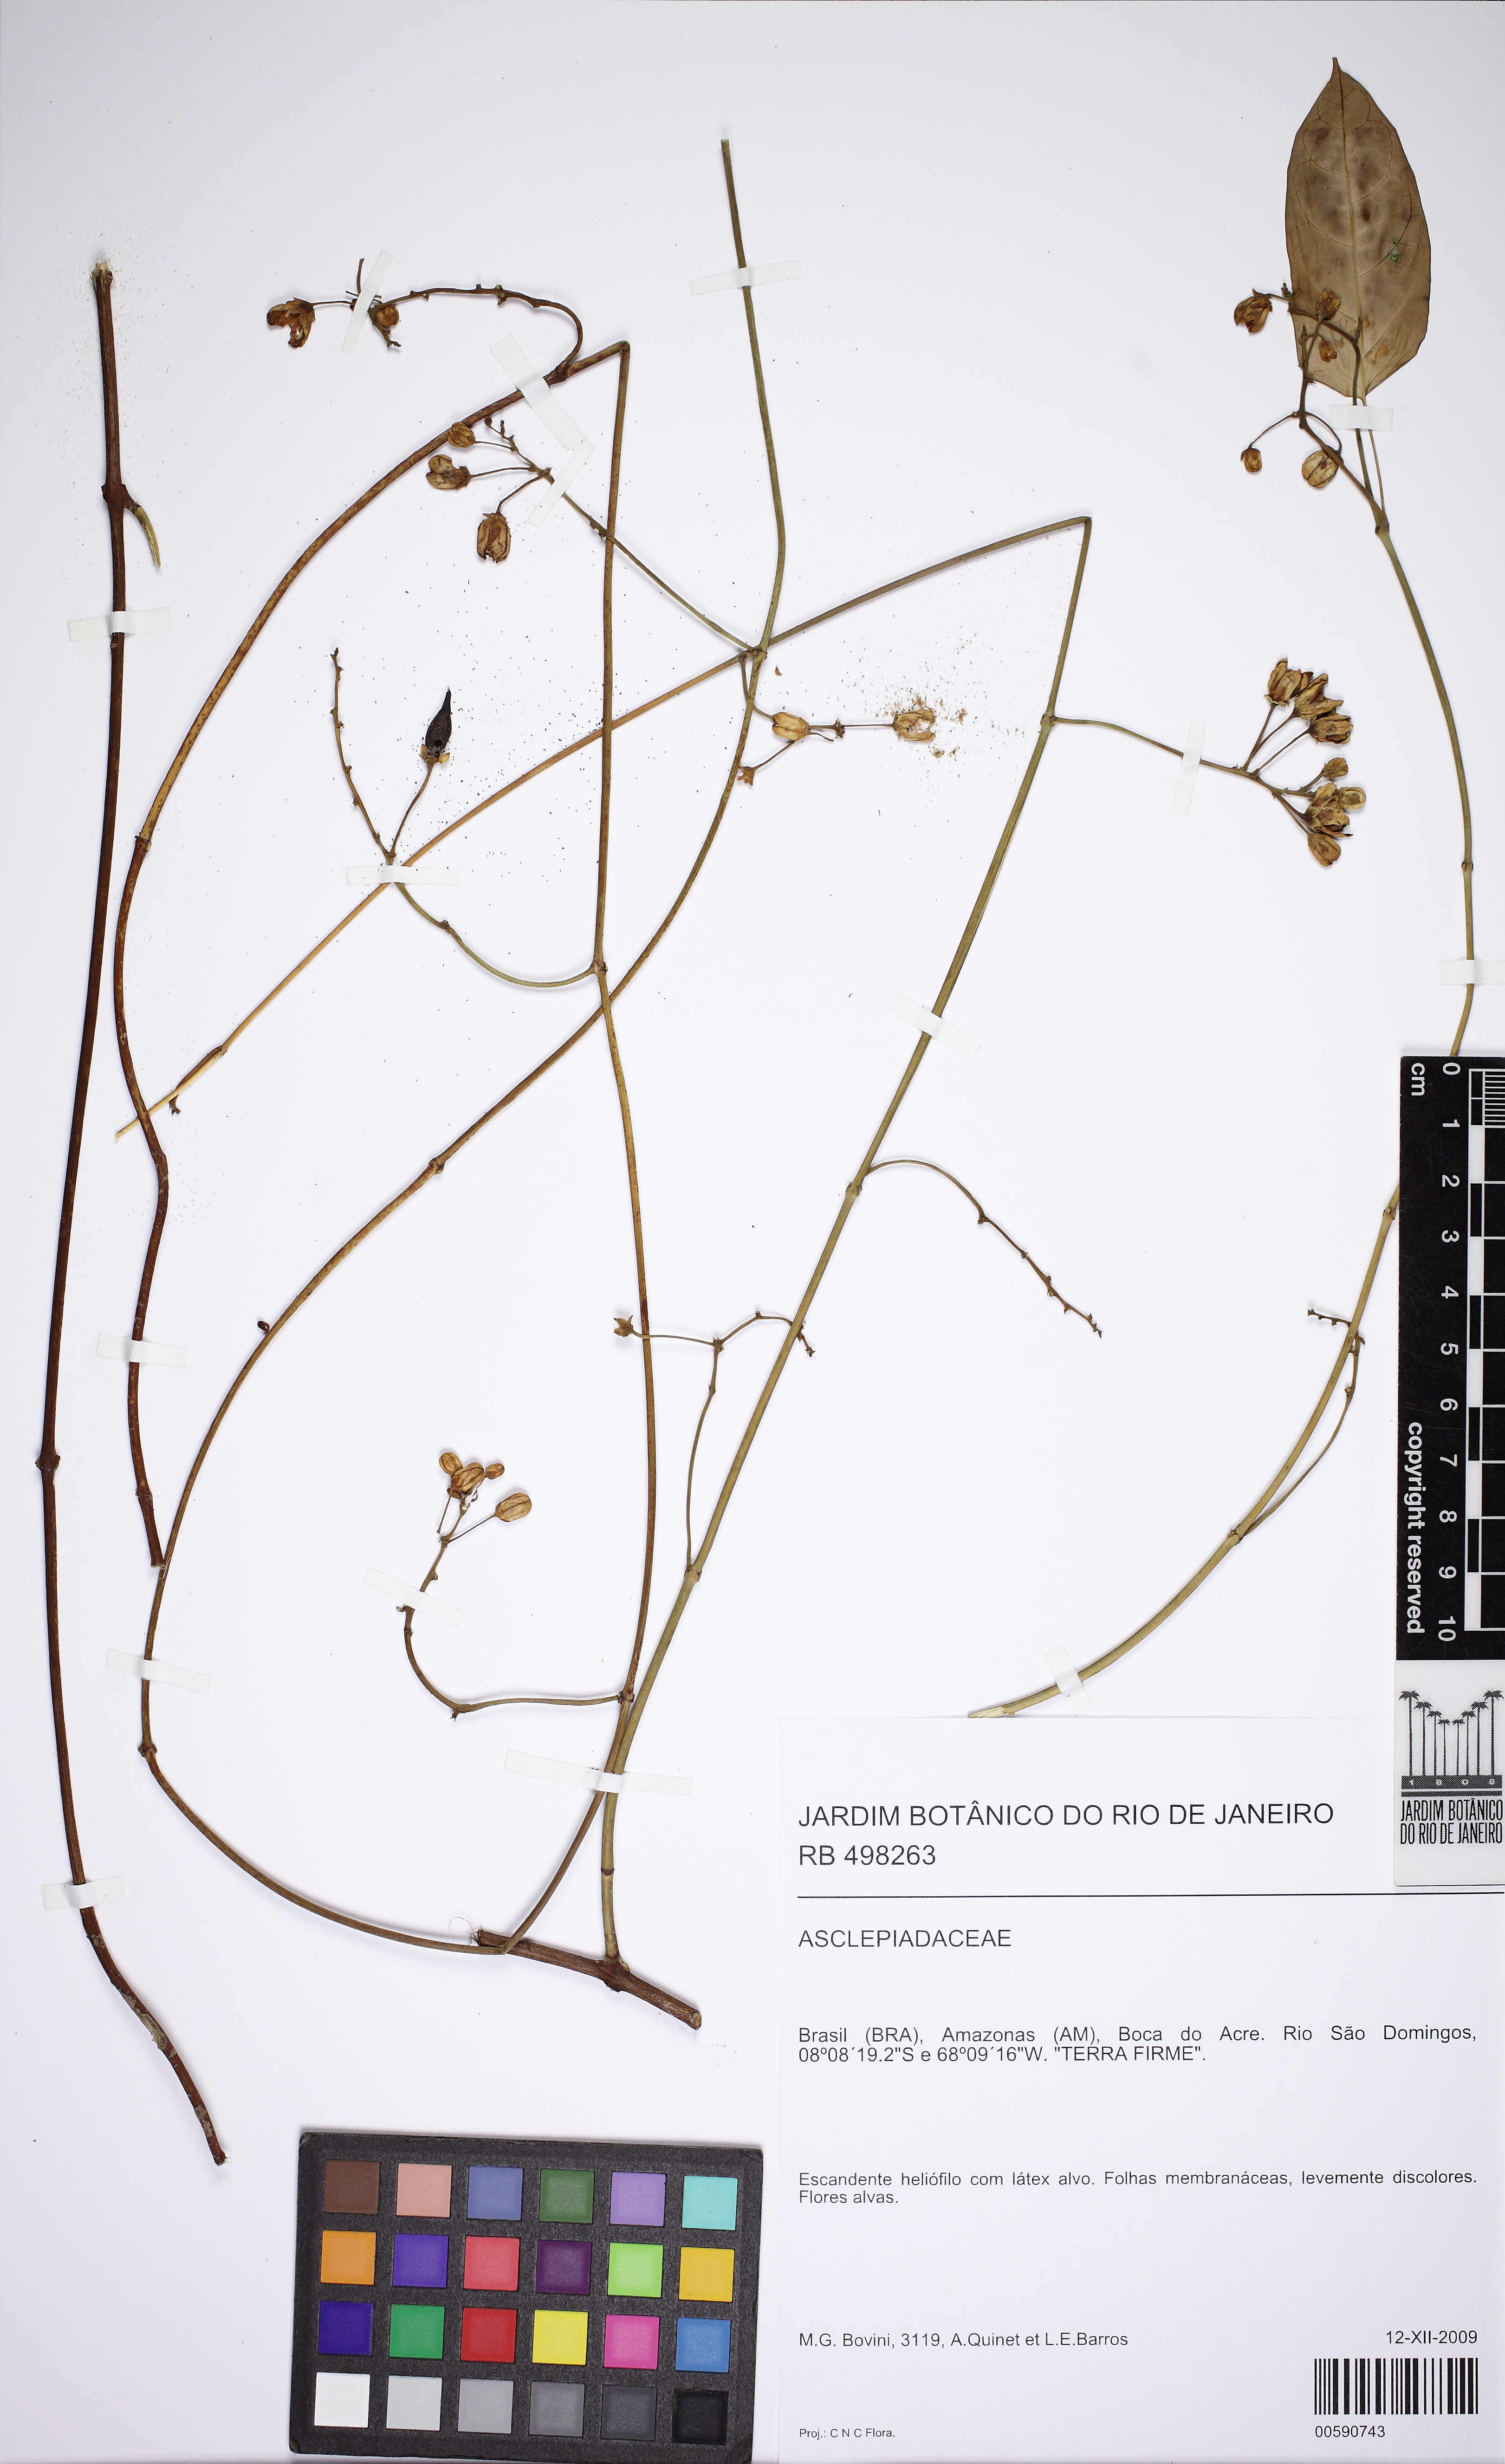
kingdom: Plantae
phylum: Tracheophyta
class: Magnoliopsida
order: Gentianales
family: Apocynaceae
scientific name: Apocynaceae
